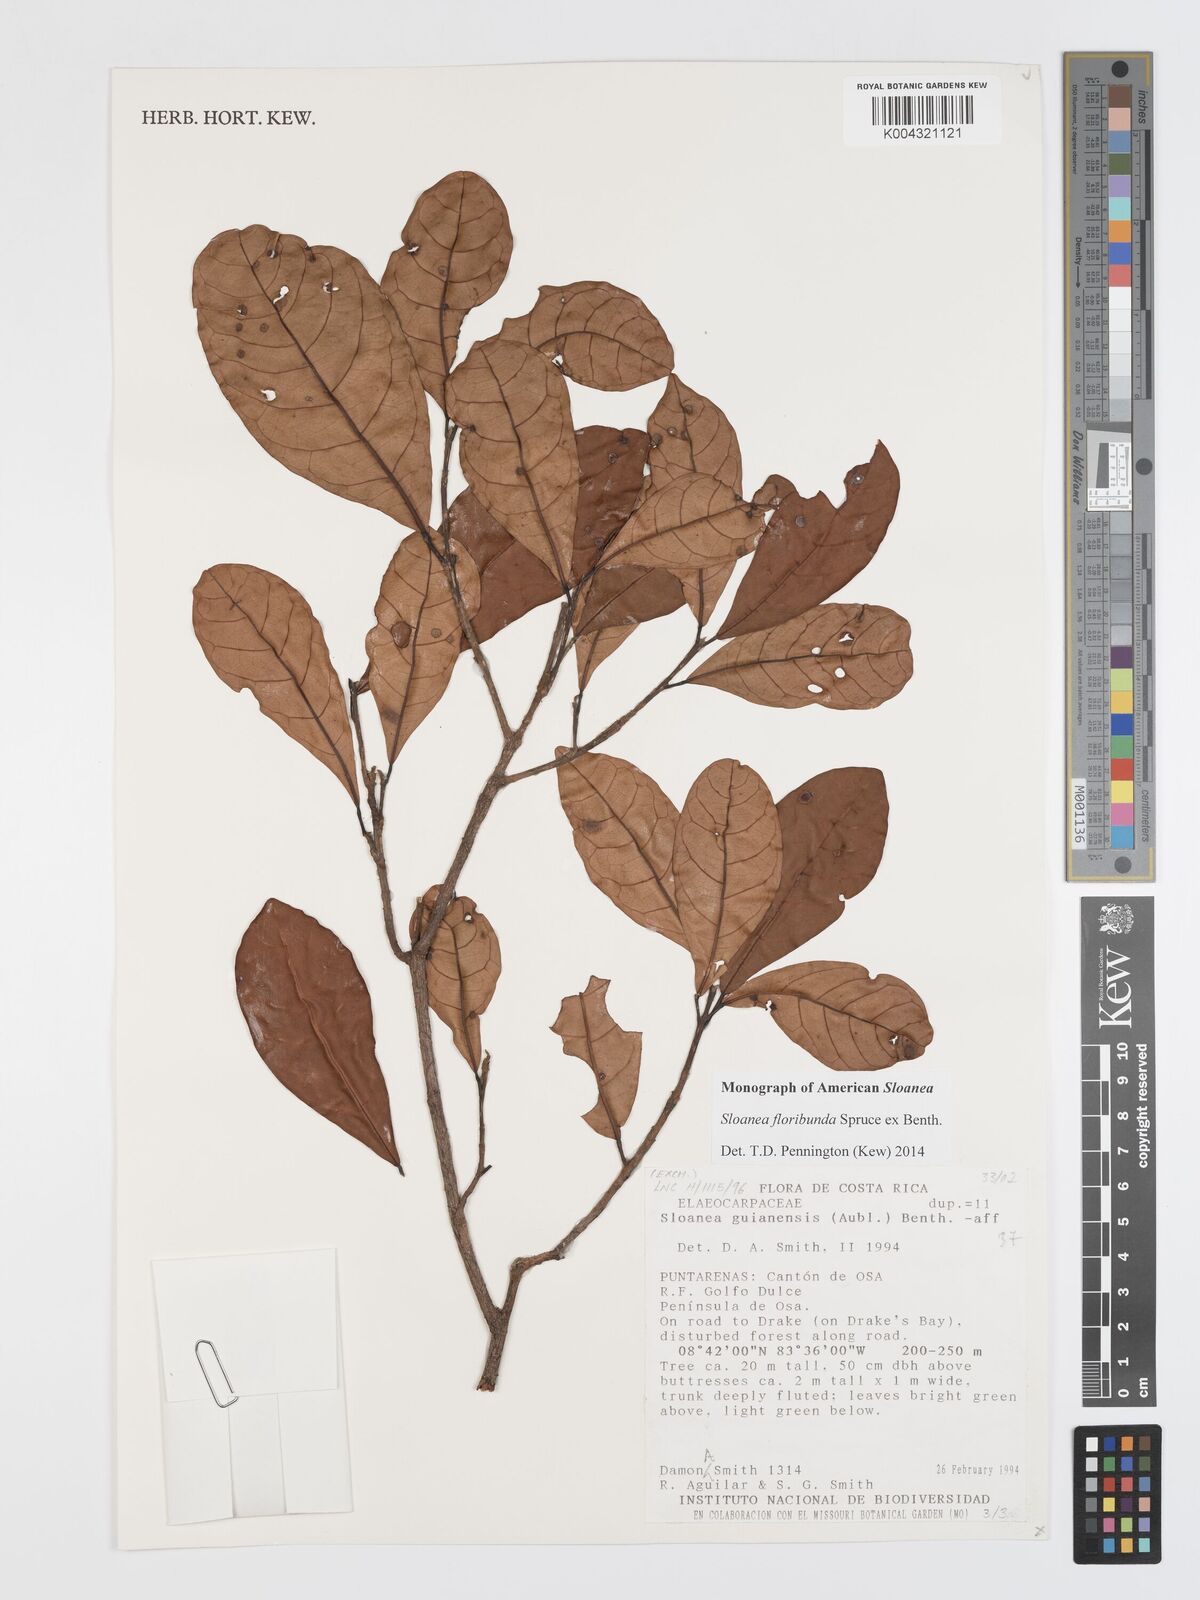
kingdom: Plantae
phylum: Tracheophyta
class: Magnoliopsida
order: Oxalidales
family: Elaeocarpaceae
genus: Sloanea
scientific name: Sloanea floribunda
